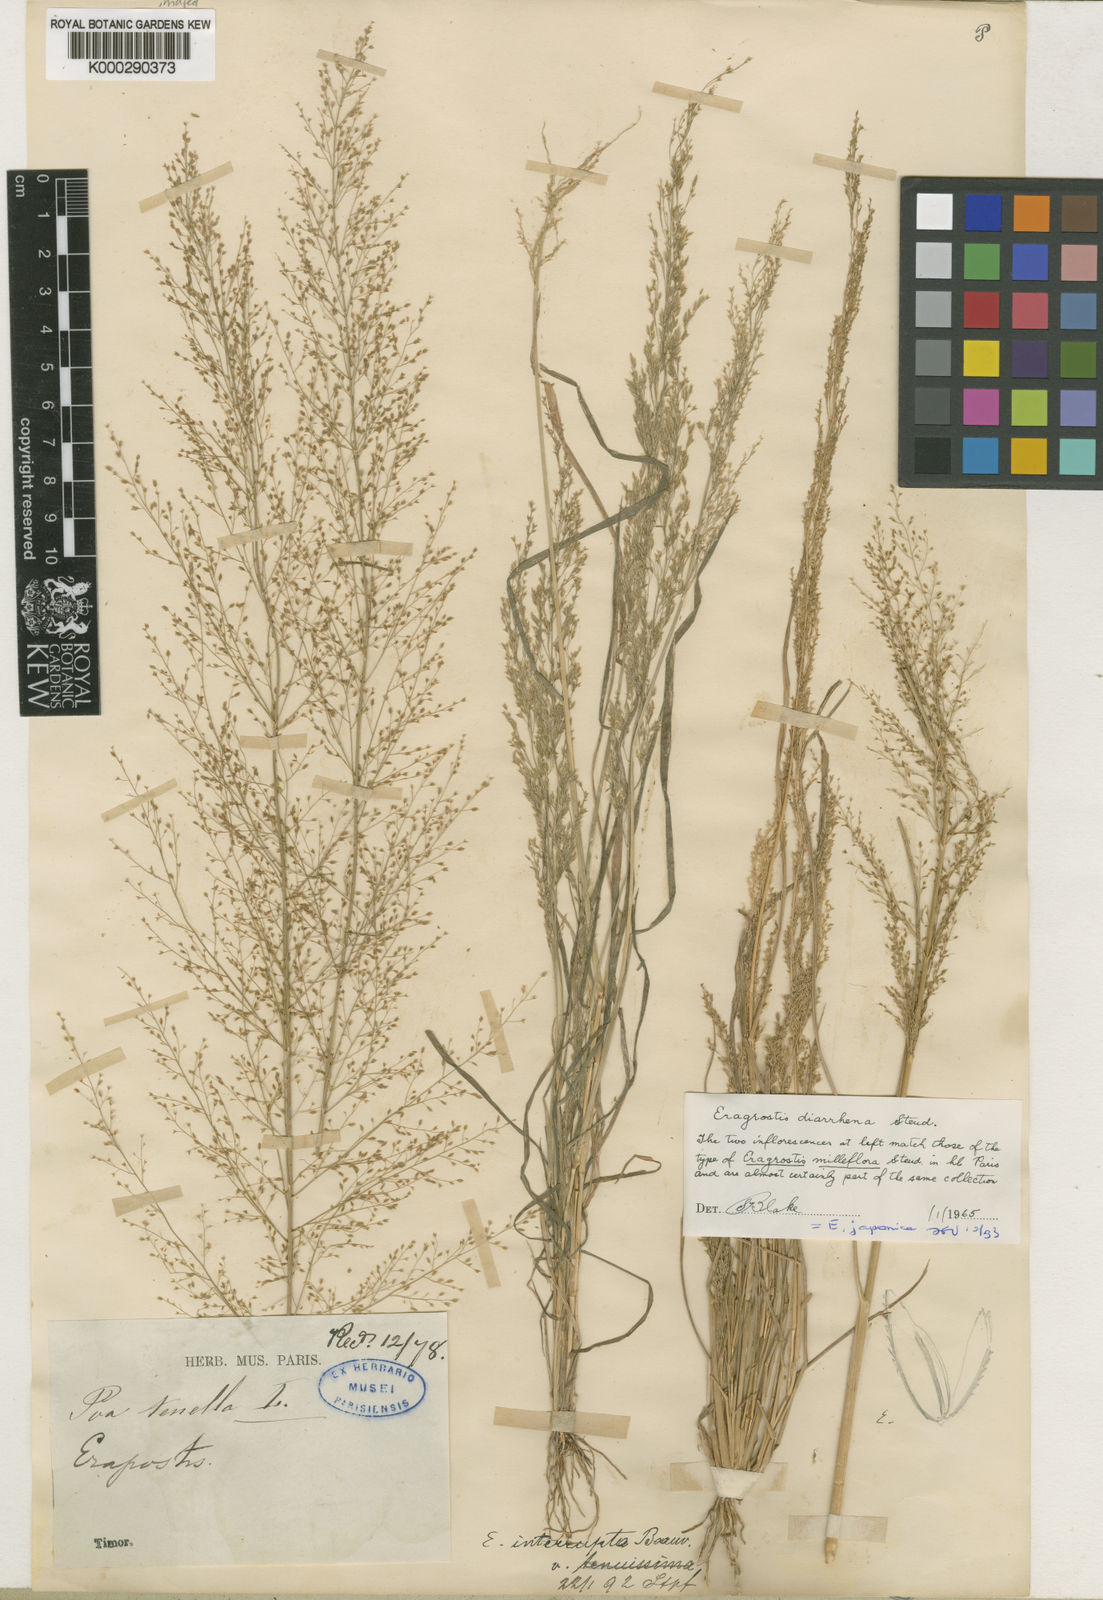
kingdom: Plantae
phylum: Tracheophyta
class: Liliopsida
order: Poales
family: Poaceae
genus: Eragrostis
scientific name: Eragrostis japonica
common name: Pond lovegrass
